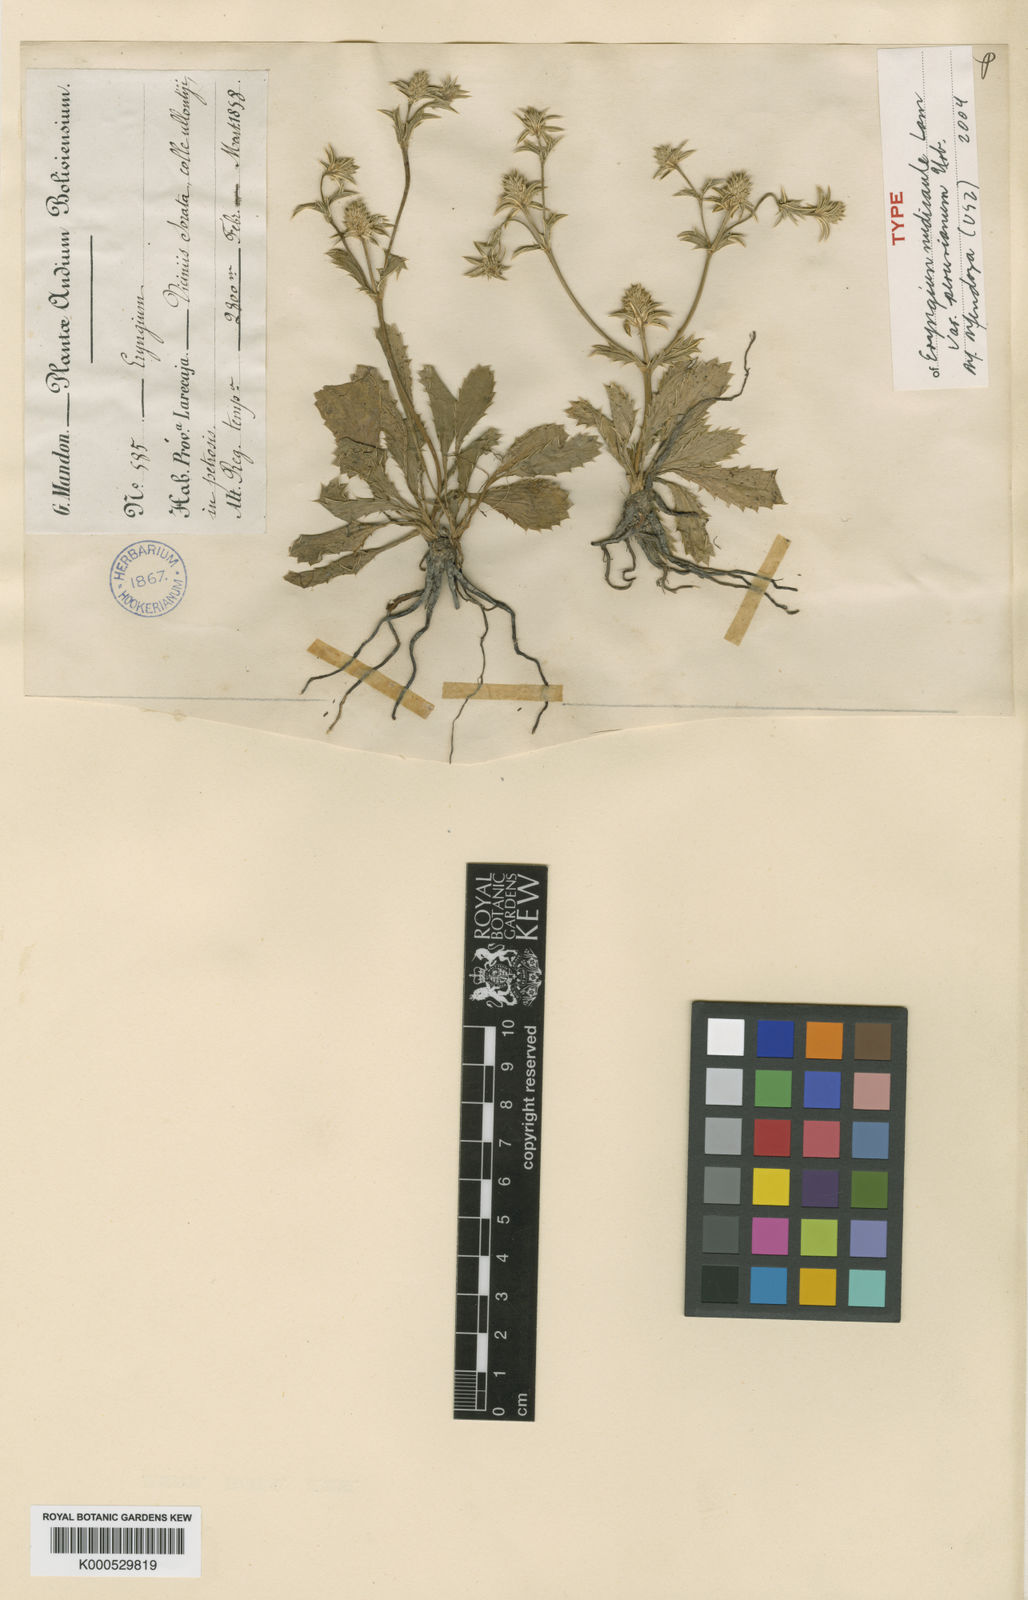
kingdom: Plantae
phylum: Tracheophyta
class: Magnoliopsida
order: Apiales
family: Apiaceae
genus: Eryngium
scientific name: Eryngium nudicaule
